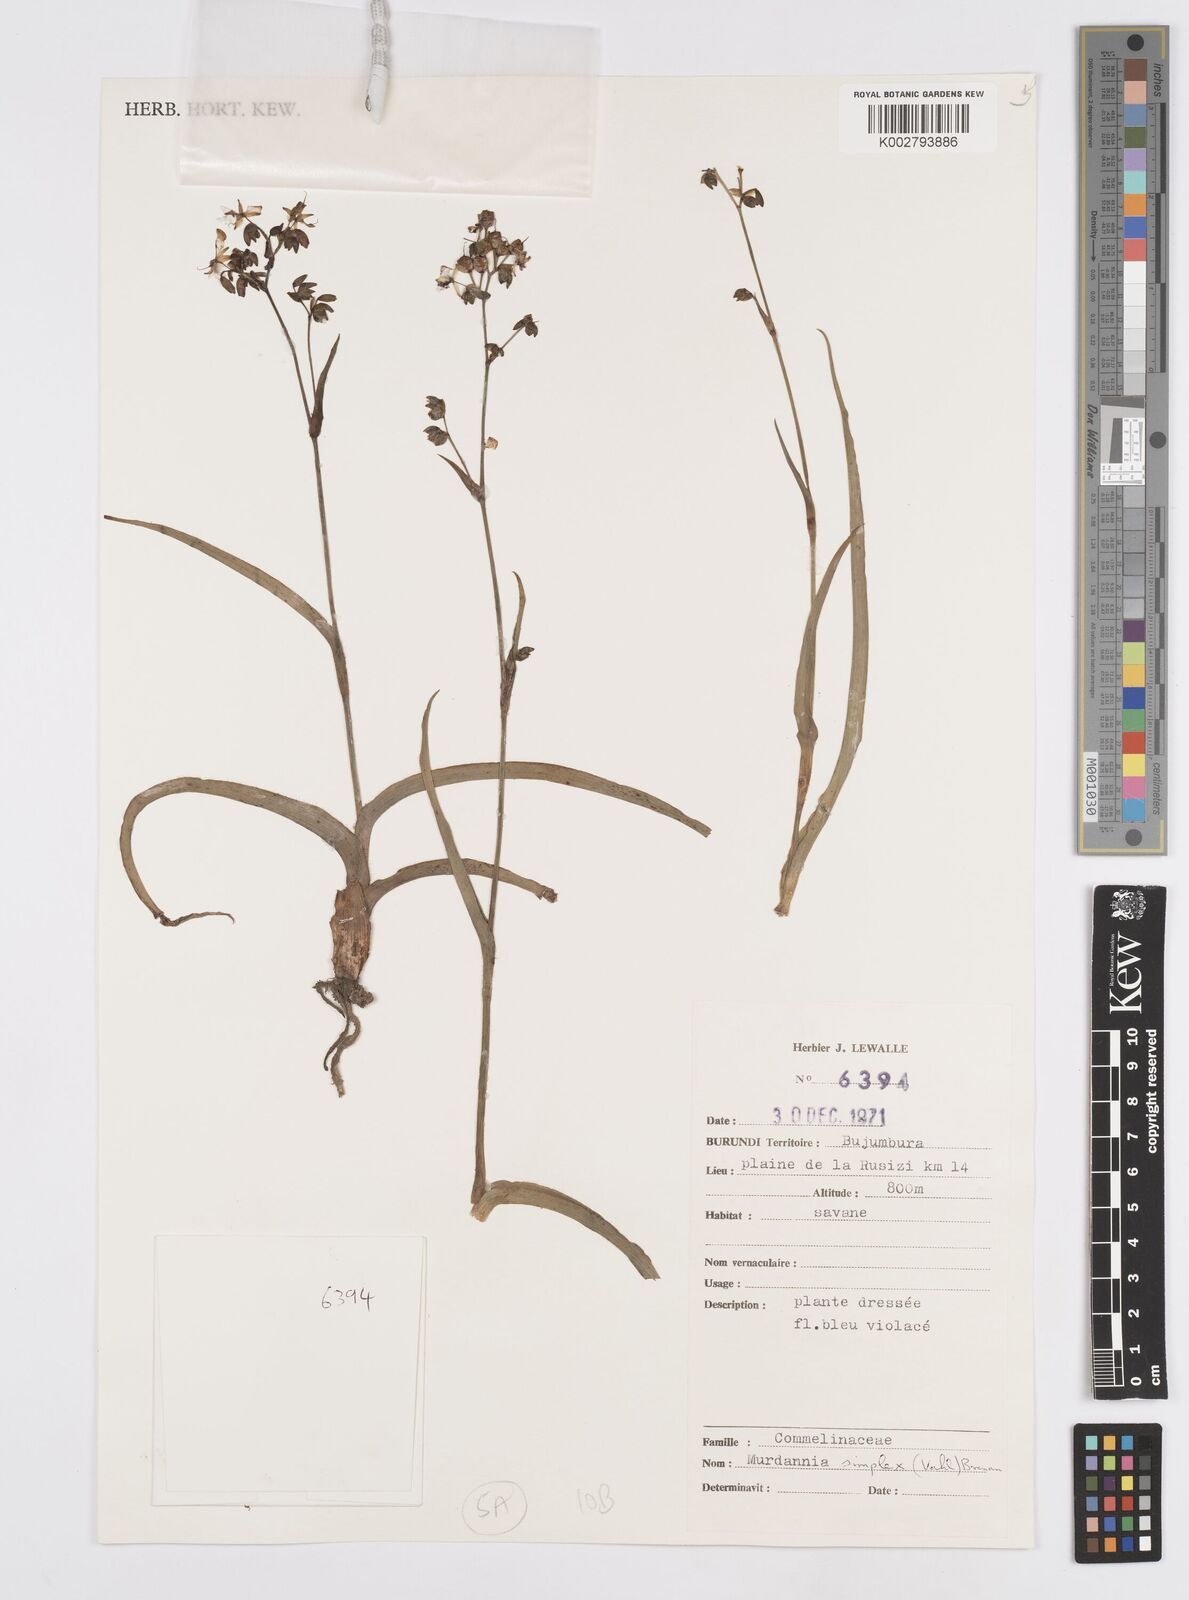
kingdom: Plantae
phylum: Tracheophyta
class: Liliopsida
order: Commelinales
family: Commelinaceae
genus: Murdannia
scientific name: Murdannia simplex
